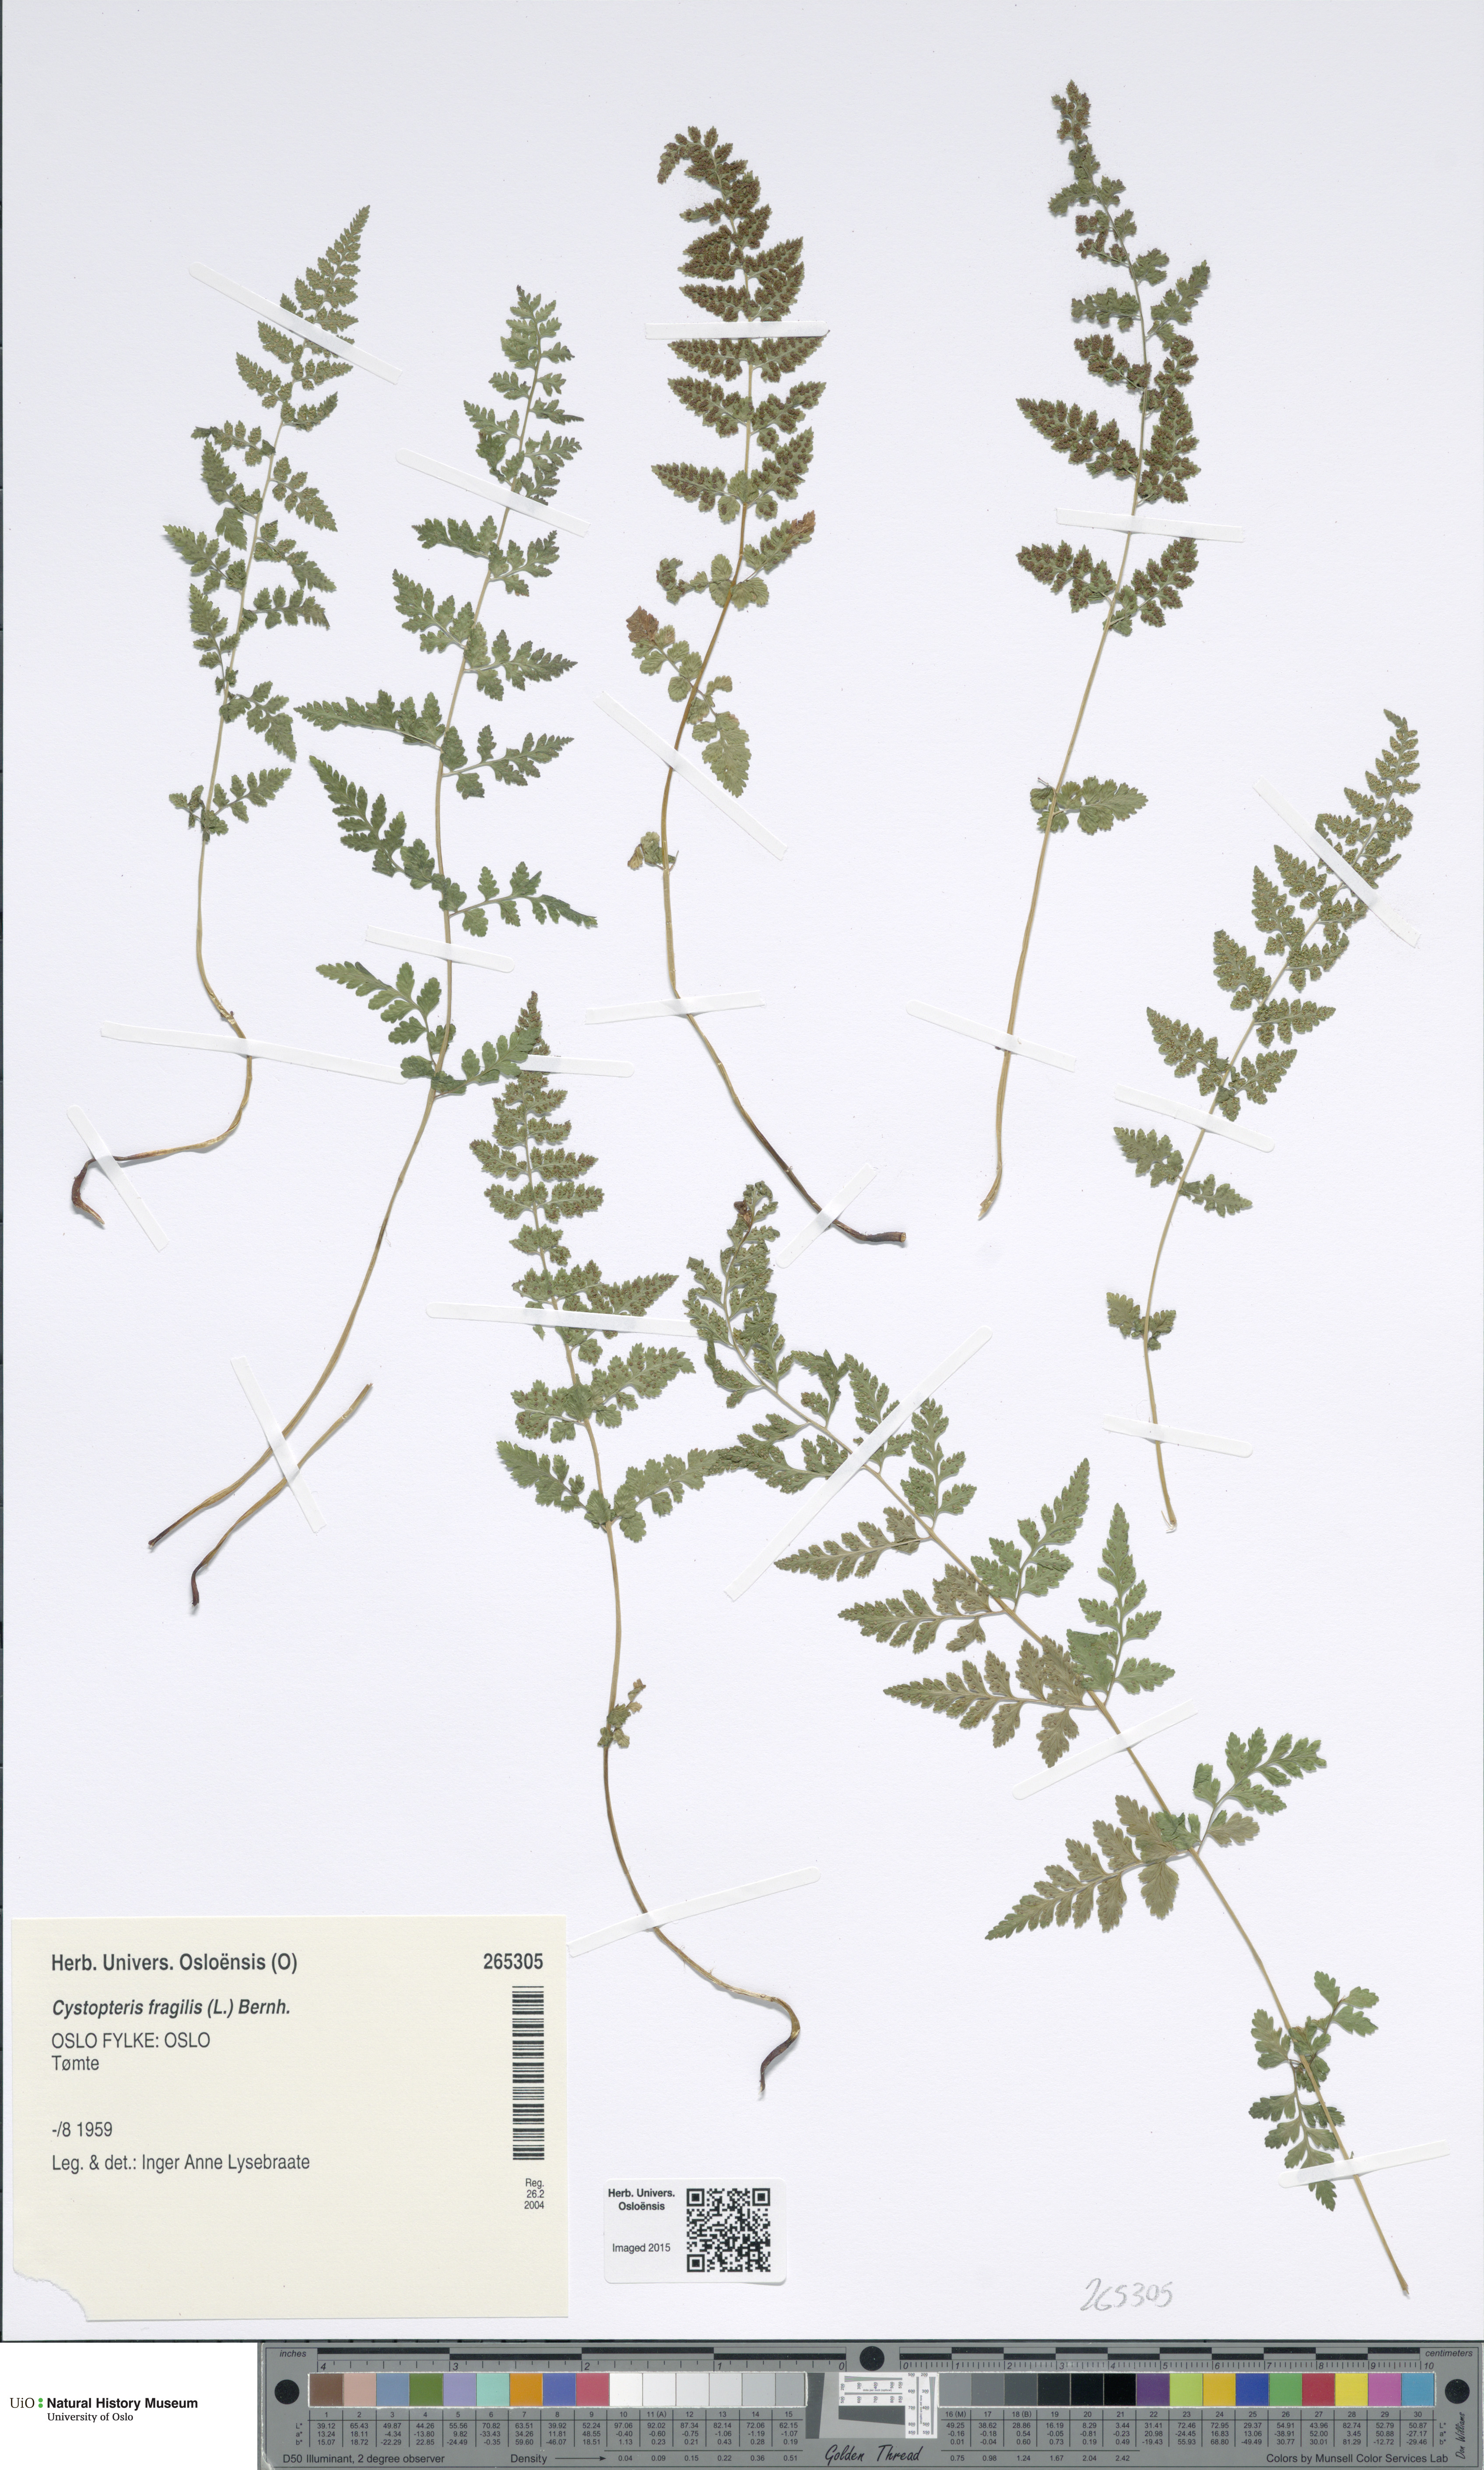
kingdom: Plantae
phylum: Tracheophyta
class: Polypodiopsida
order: Polypodiales
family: Cystopteridaceae
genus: Cystopteris
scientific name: Cystopteris fragilis
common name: Brittle bladder fern
